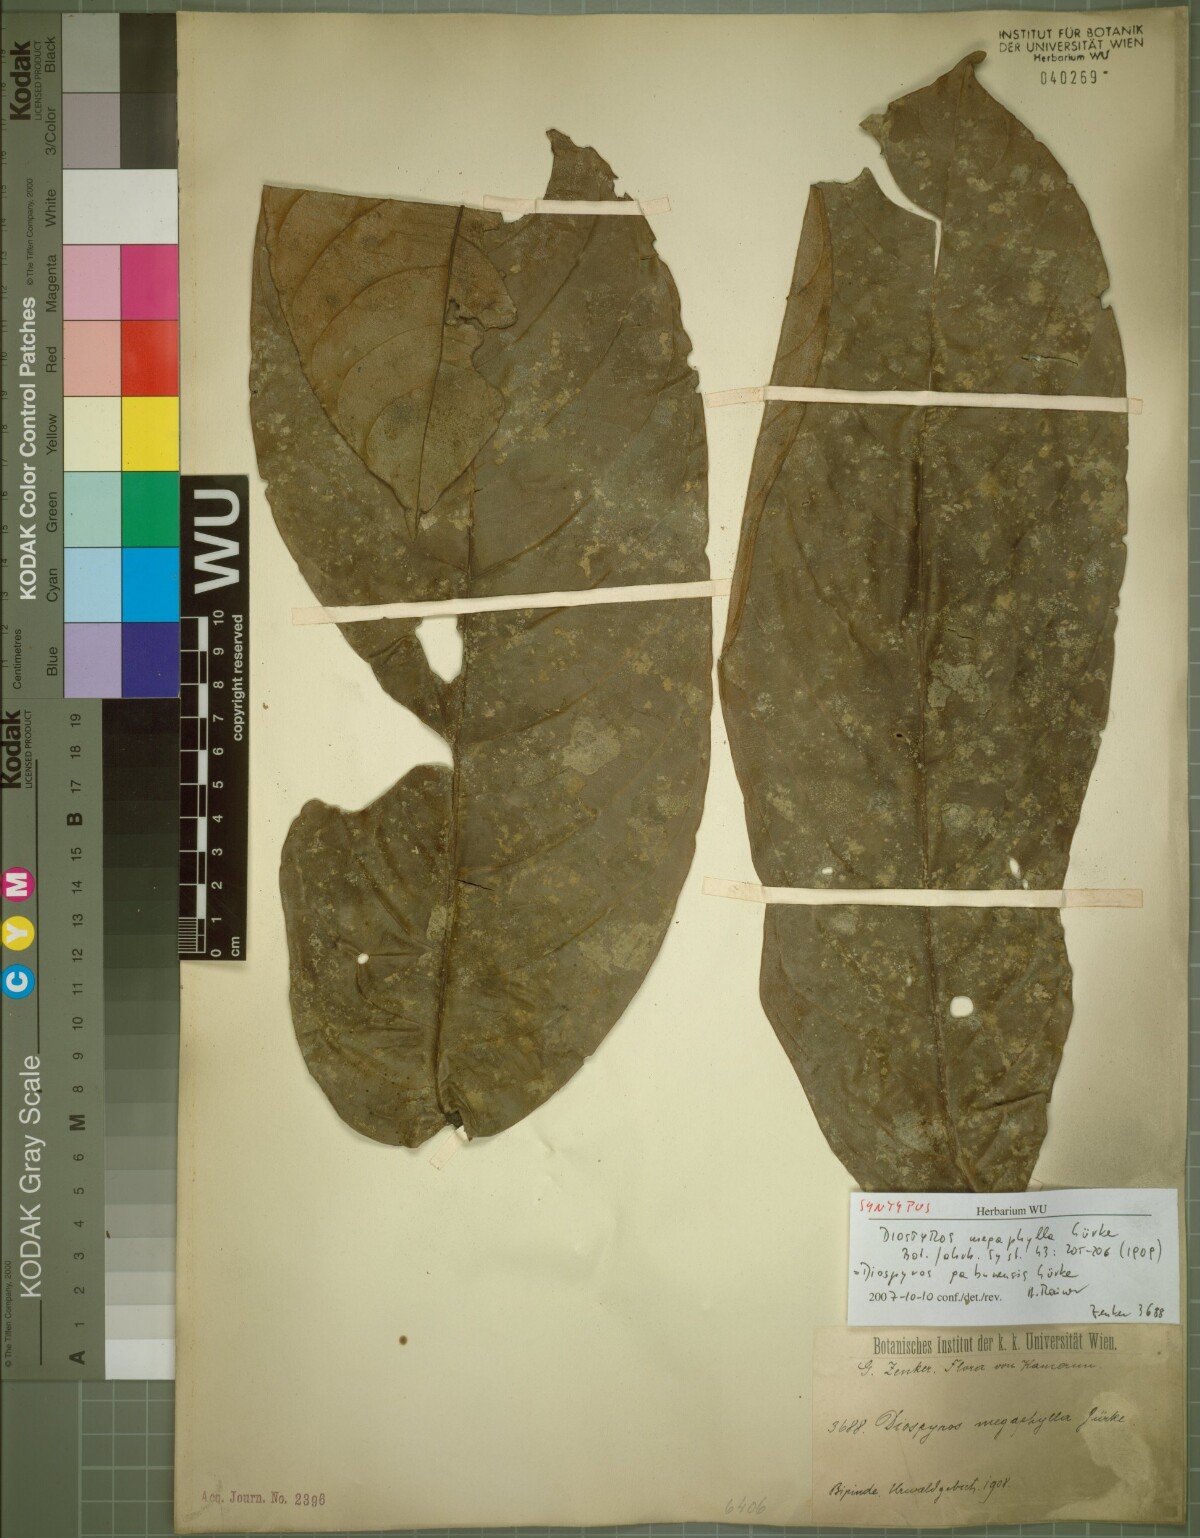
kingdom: Plantae
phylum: Tracheophyta
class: Magnoliopsida
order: Ericales
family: Ebenaceae
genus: Diospyros
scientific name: Diospyros gabunensis
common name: Flint bark tree
